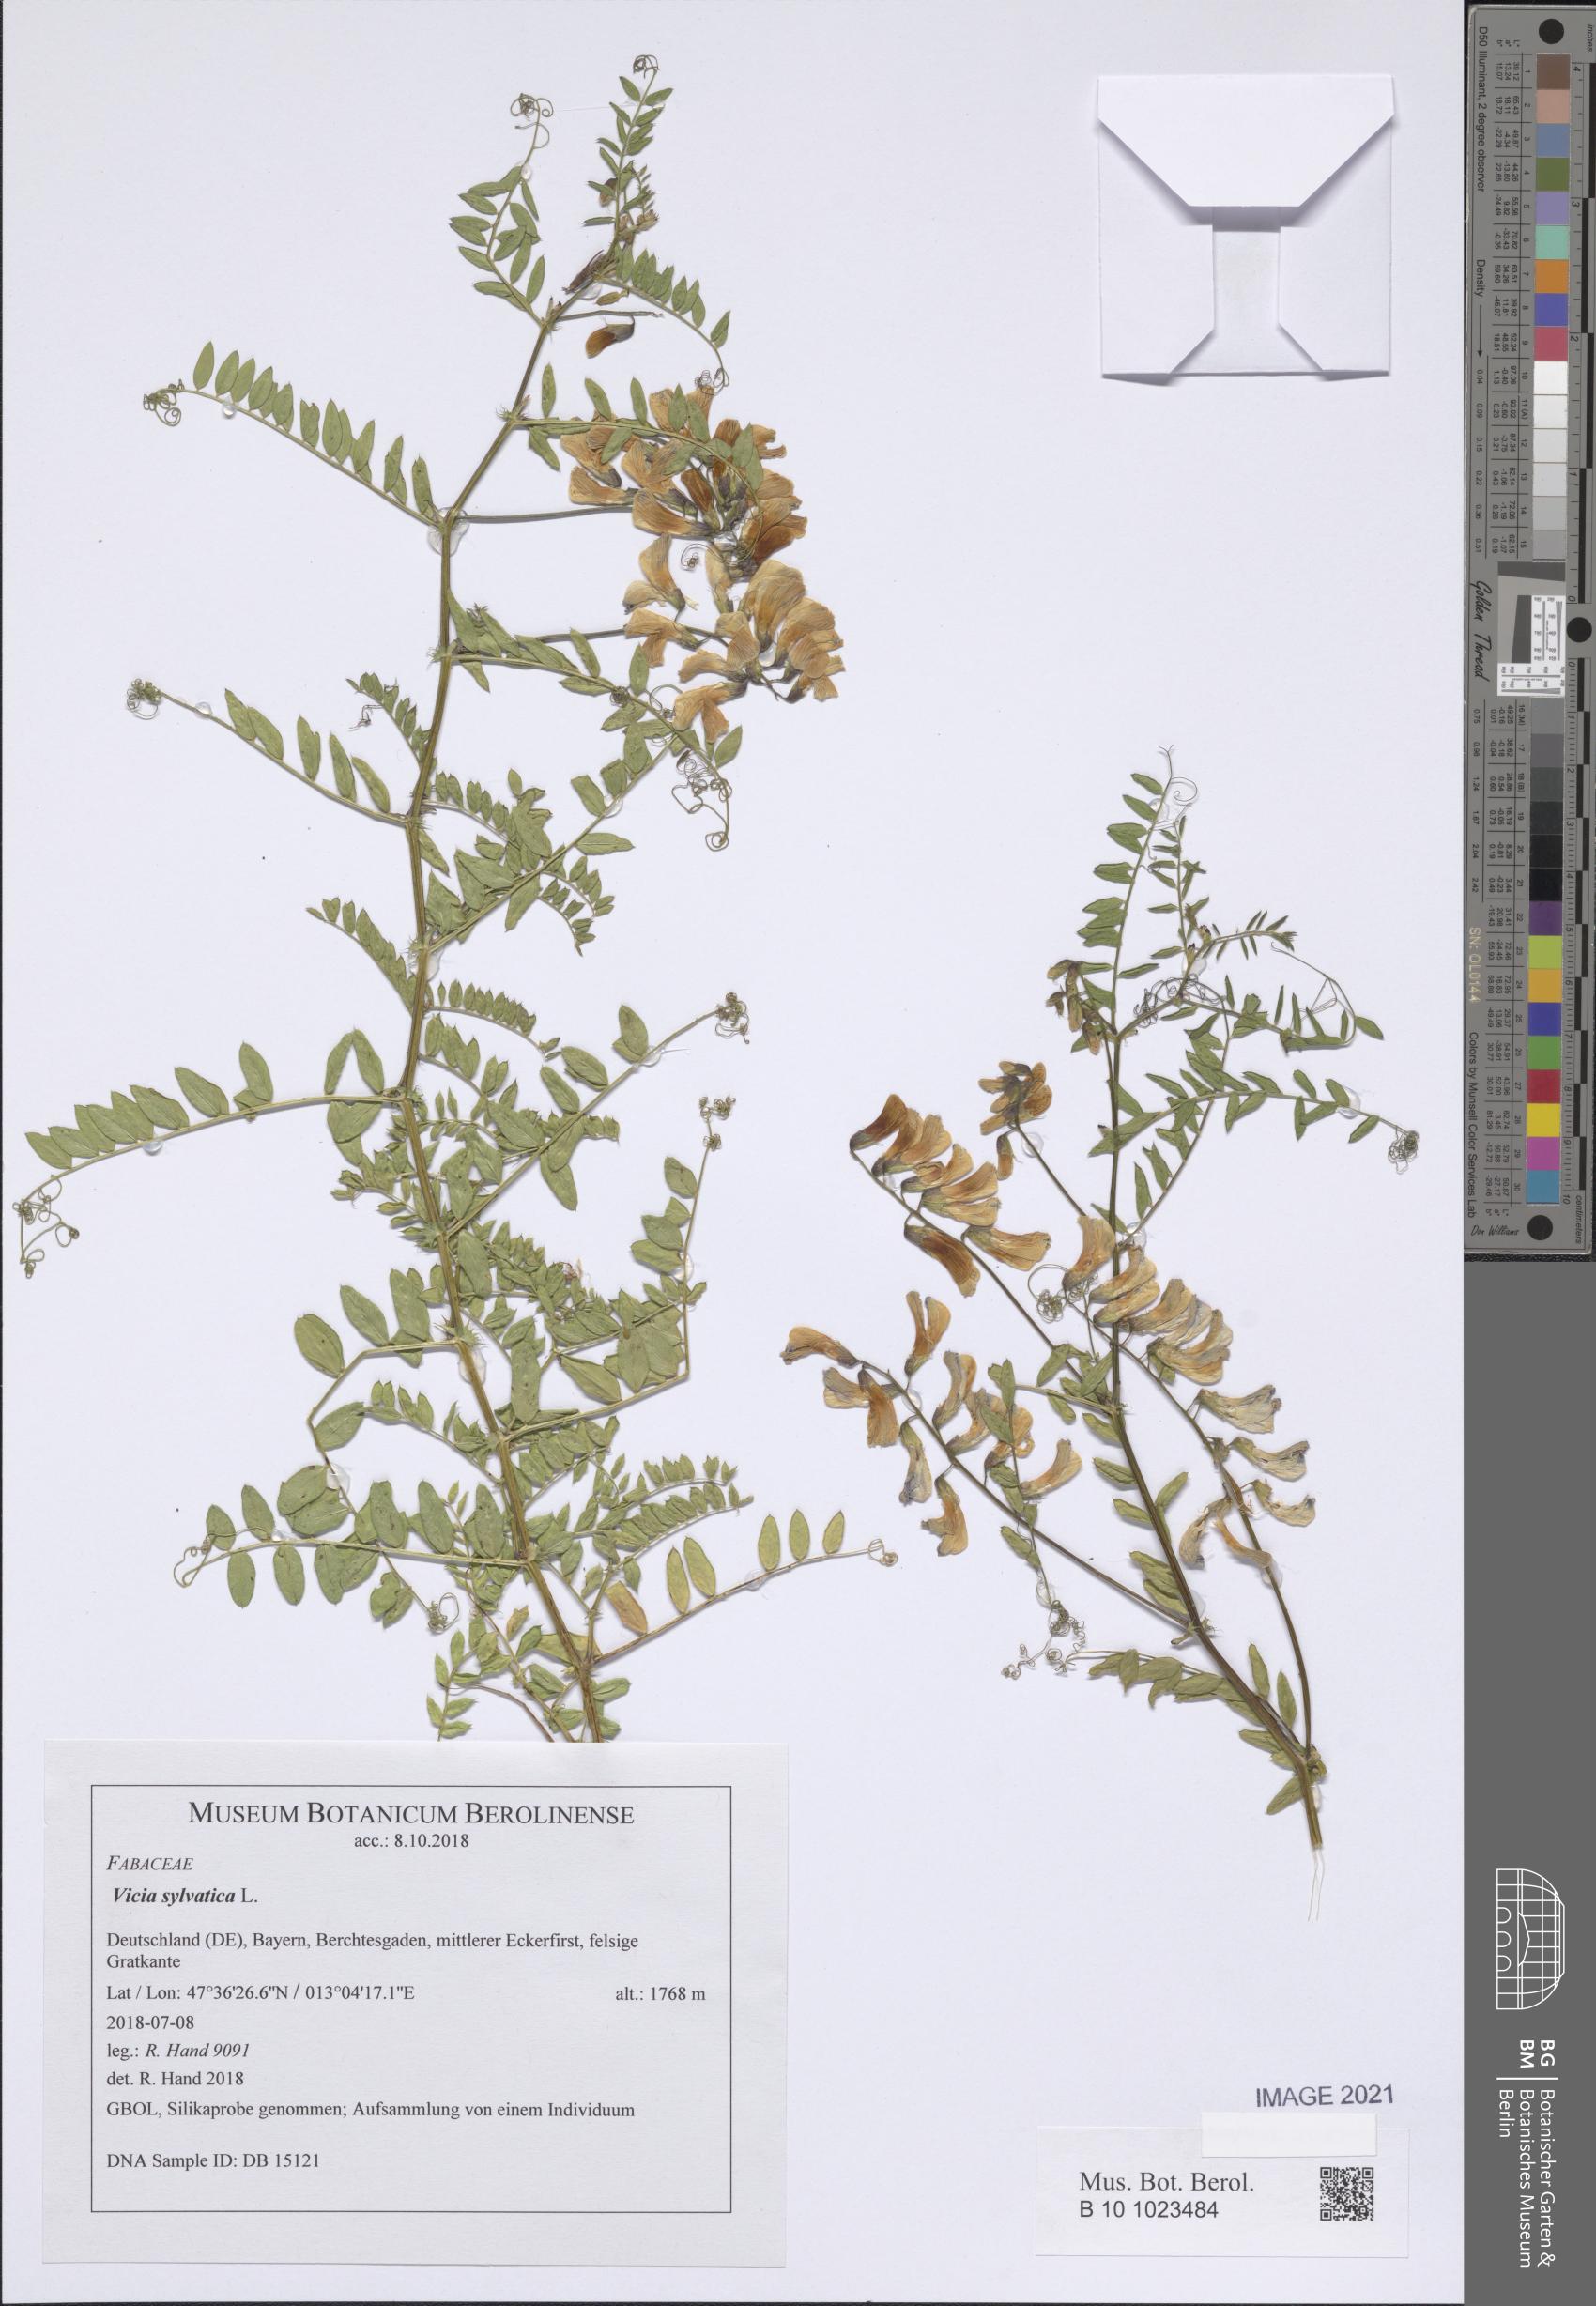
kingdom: Plantae
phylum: Tracheophyta
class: Magnoliopsida
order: Fabales
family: Fabaceae
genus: Vicia
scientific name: Vicia sylvatica
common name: Wood vetch
